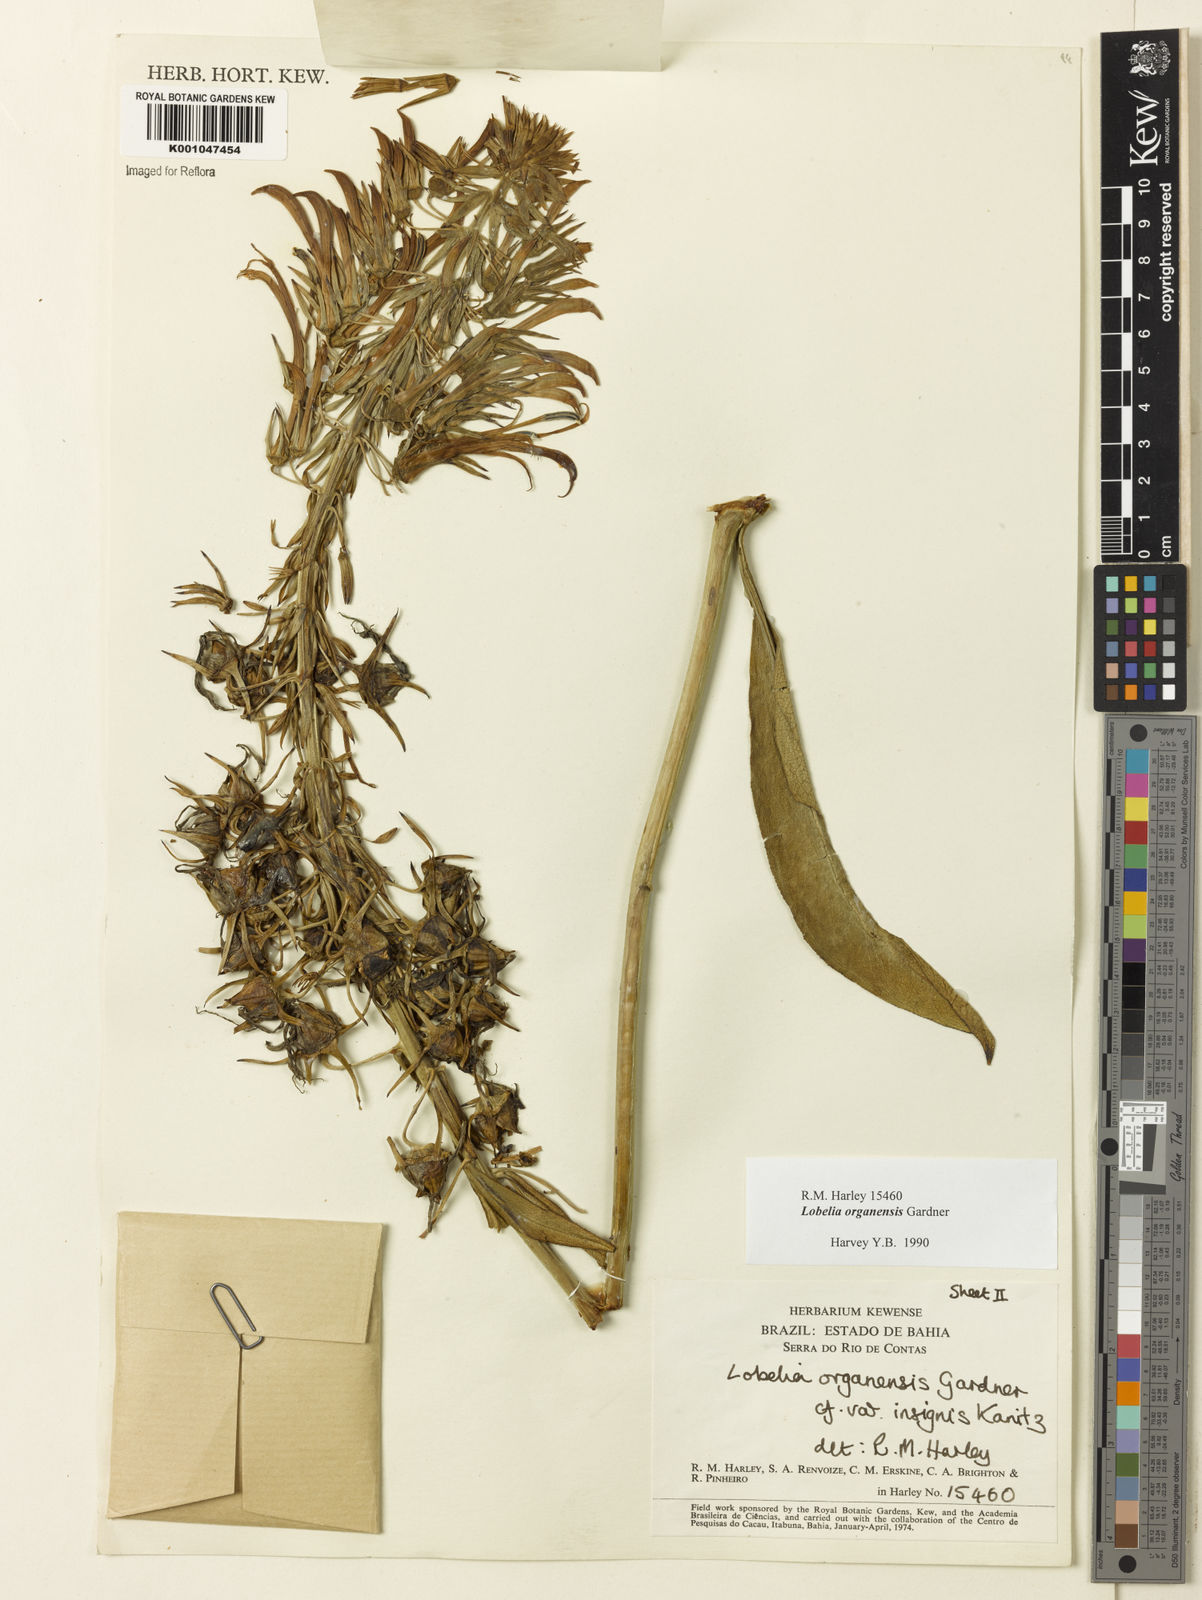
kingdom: Plantae
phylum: Tracheophyta
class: Magnoliopsida
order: Asterales
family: Campanulaceae
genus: Lobelia
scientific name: Lobelia organensis
